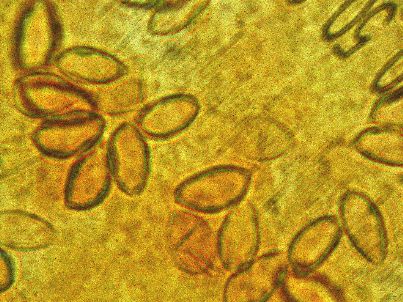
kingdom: Fungi
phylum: Basidiomycota
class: Agaricomycetes
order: Agaricales
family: Hymenogastraceae
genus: Hebeloma
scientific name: Hebeloma aanenii
